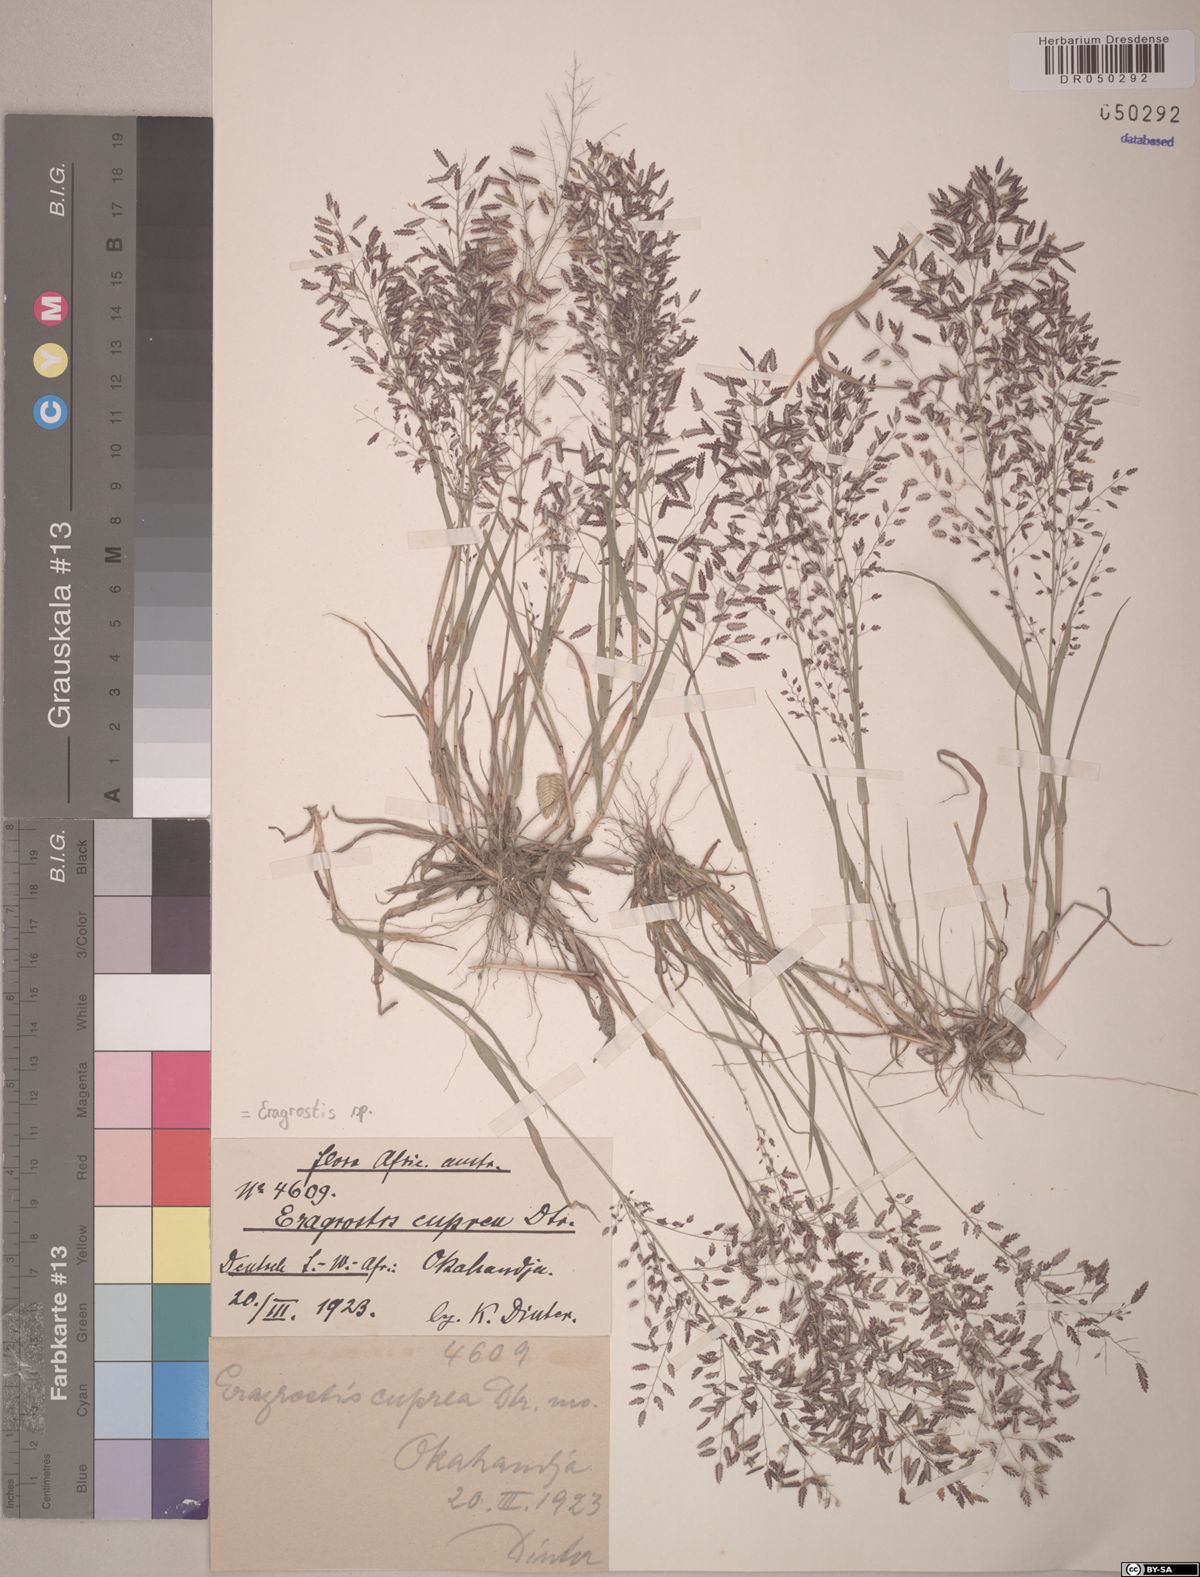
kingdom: Plantae
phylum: Tracheophyta
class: Liliopsida
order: Poales
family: Poaceae
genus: Eragrostis
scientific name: Eragrostis
